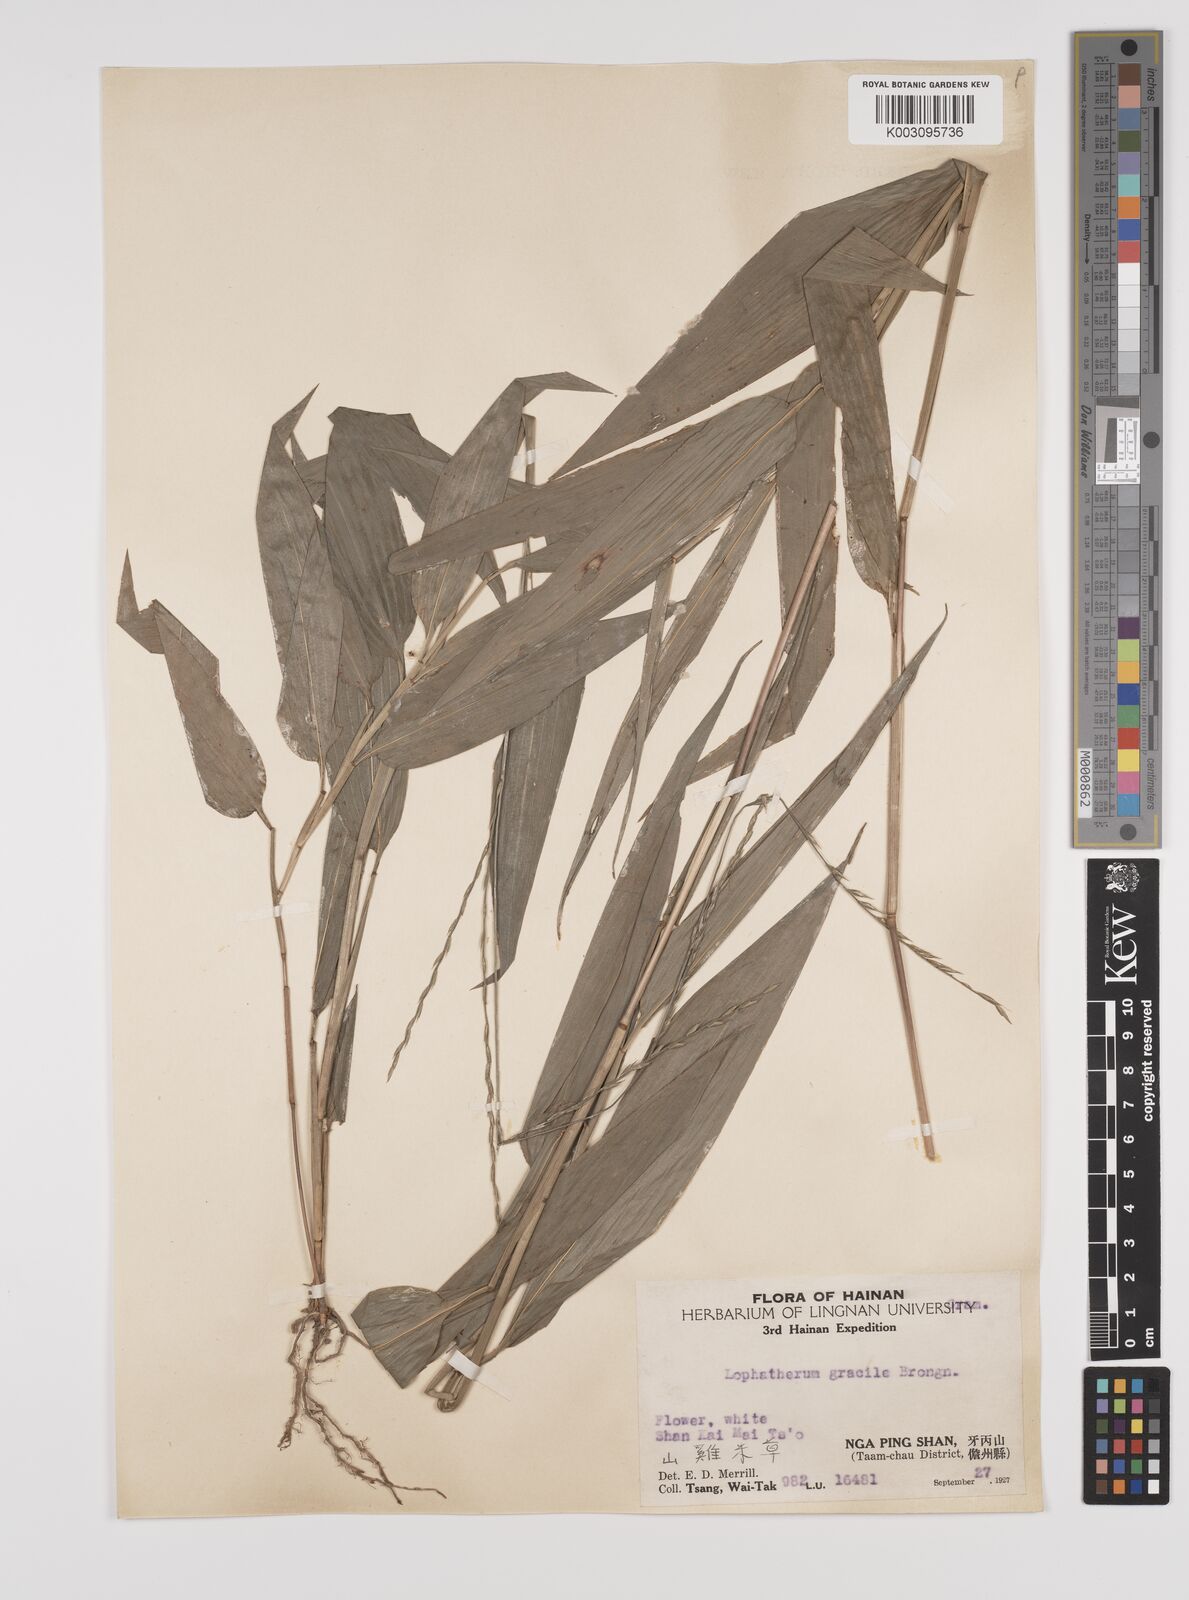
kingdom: Plantae
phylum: Tracheophyta
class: Liliopsida
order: Poales
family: Poaceae
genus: Lophatherum
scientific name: Lophatherum gracile
